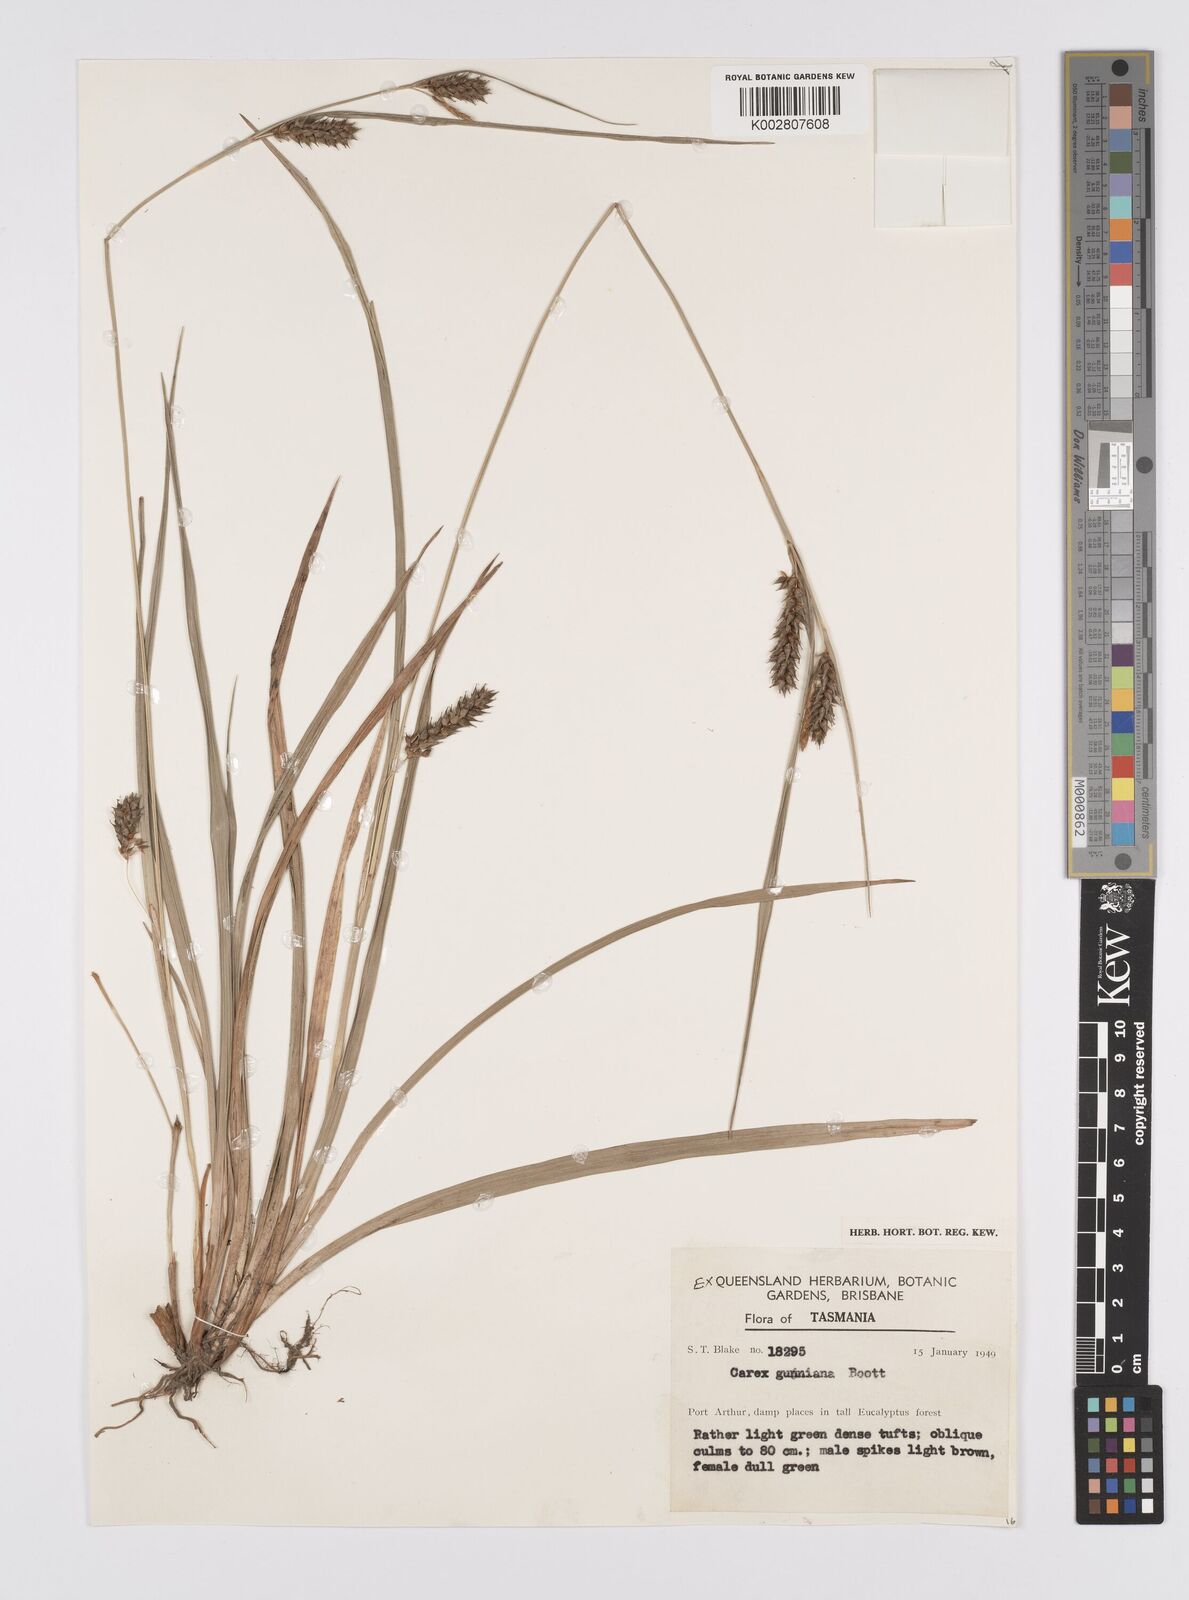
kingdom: Plantae
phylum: Tracheophyta
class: Liliopsida
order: Poales
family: Cyperaceae
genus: Carex
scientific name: Carex gunniana
